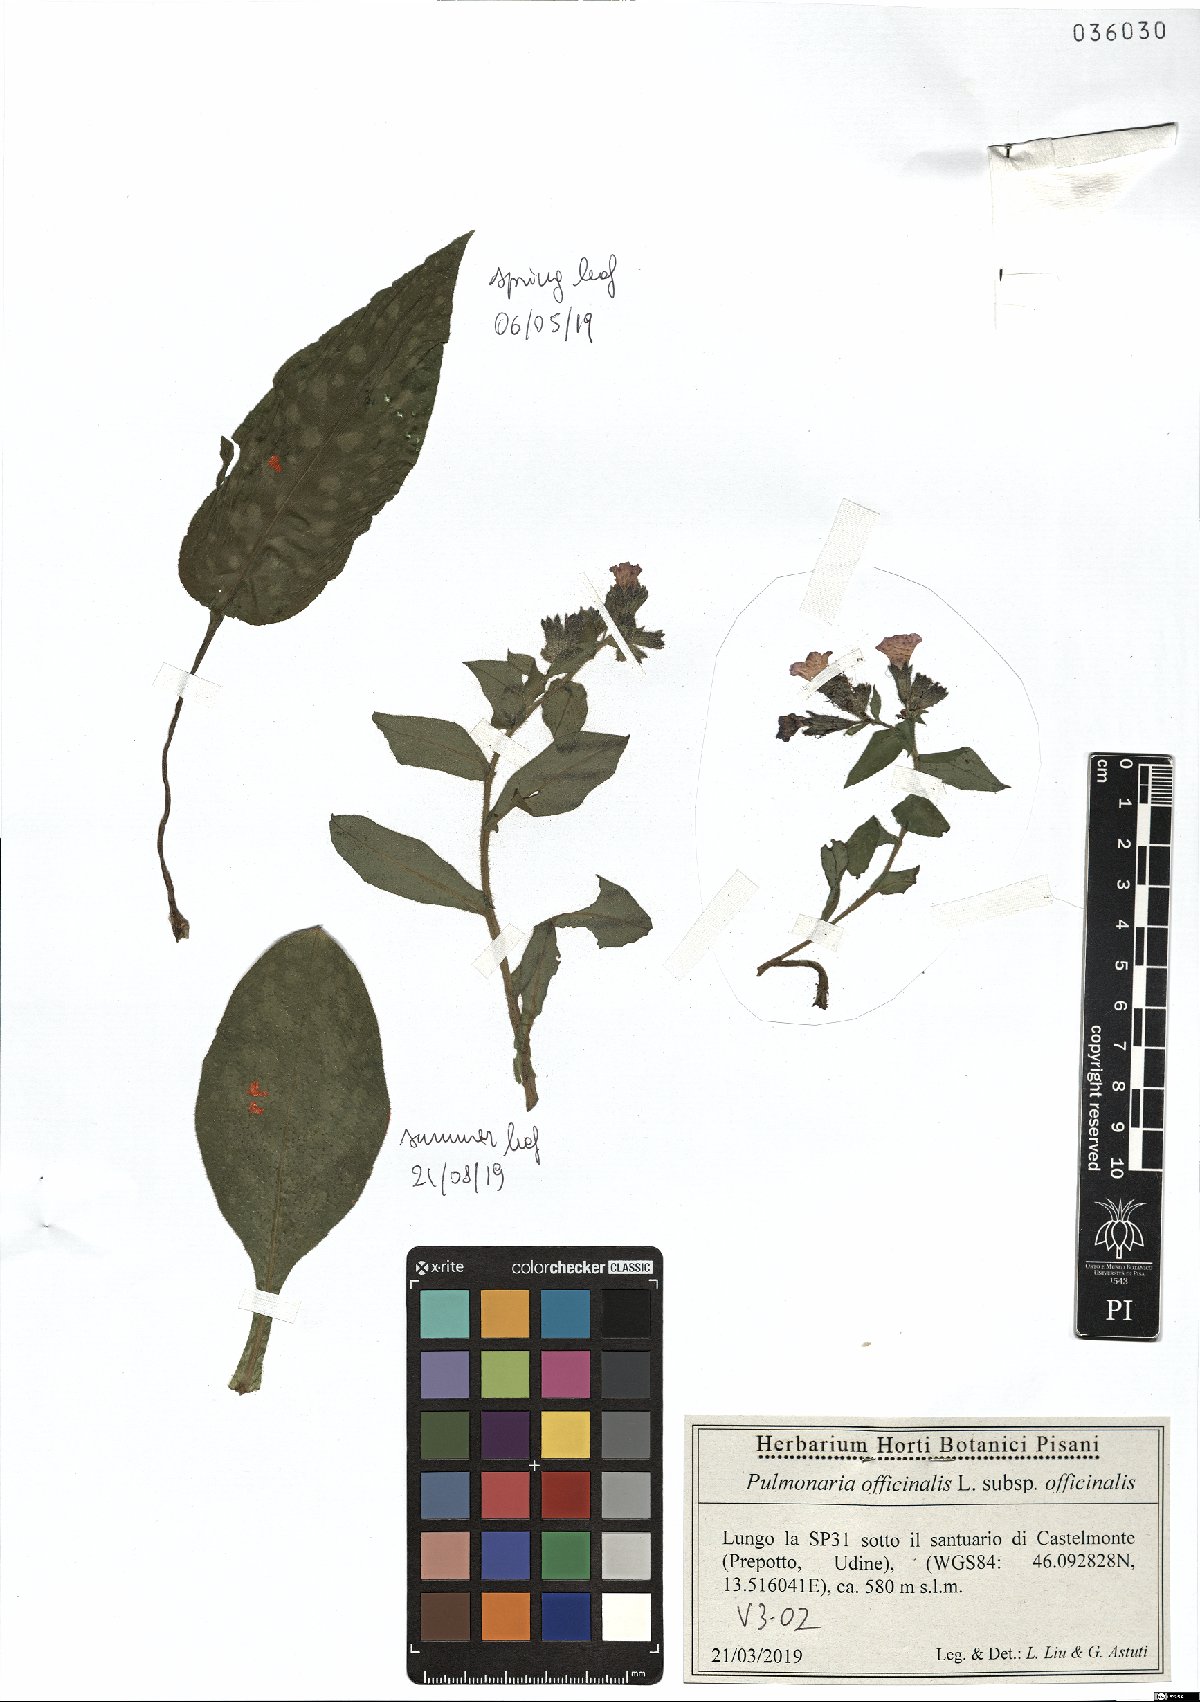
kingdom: Plantae
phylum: Tracheophyta
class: Magnoliopsida
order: Boraginales
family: Boraginaceae
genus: Pulmonaria
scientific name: Pulmonaria officinalis
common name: Lungwort
